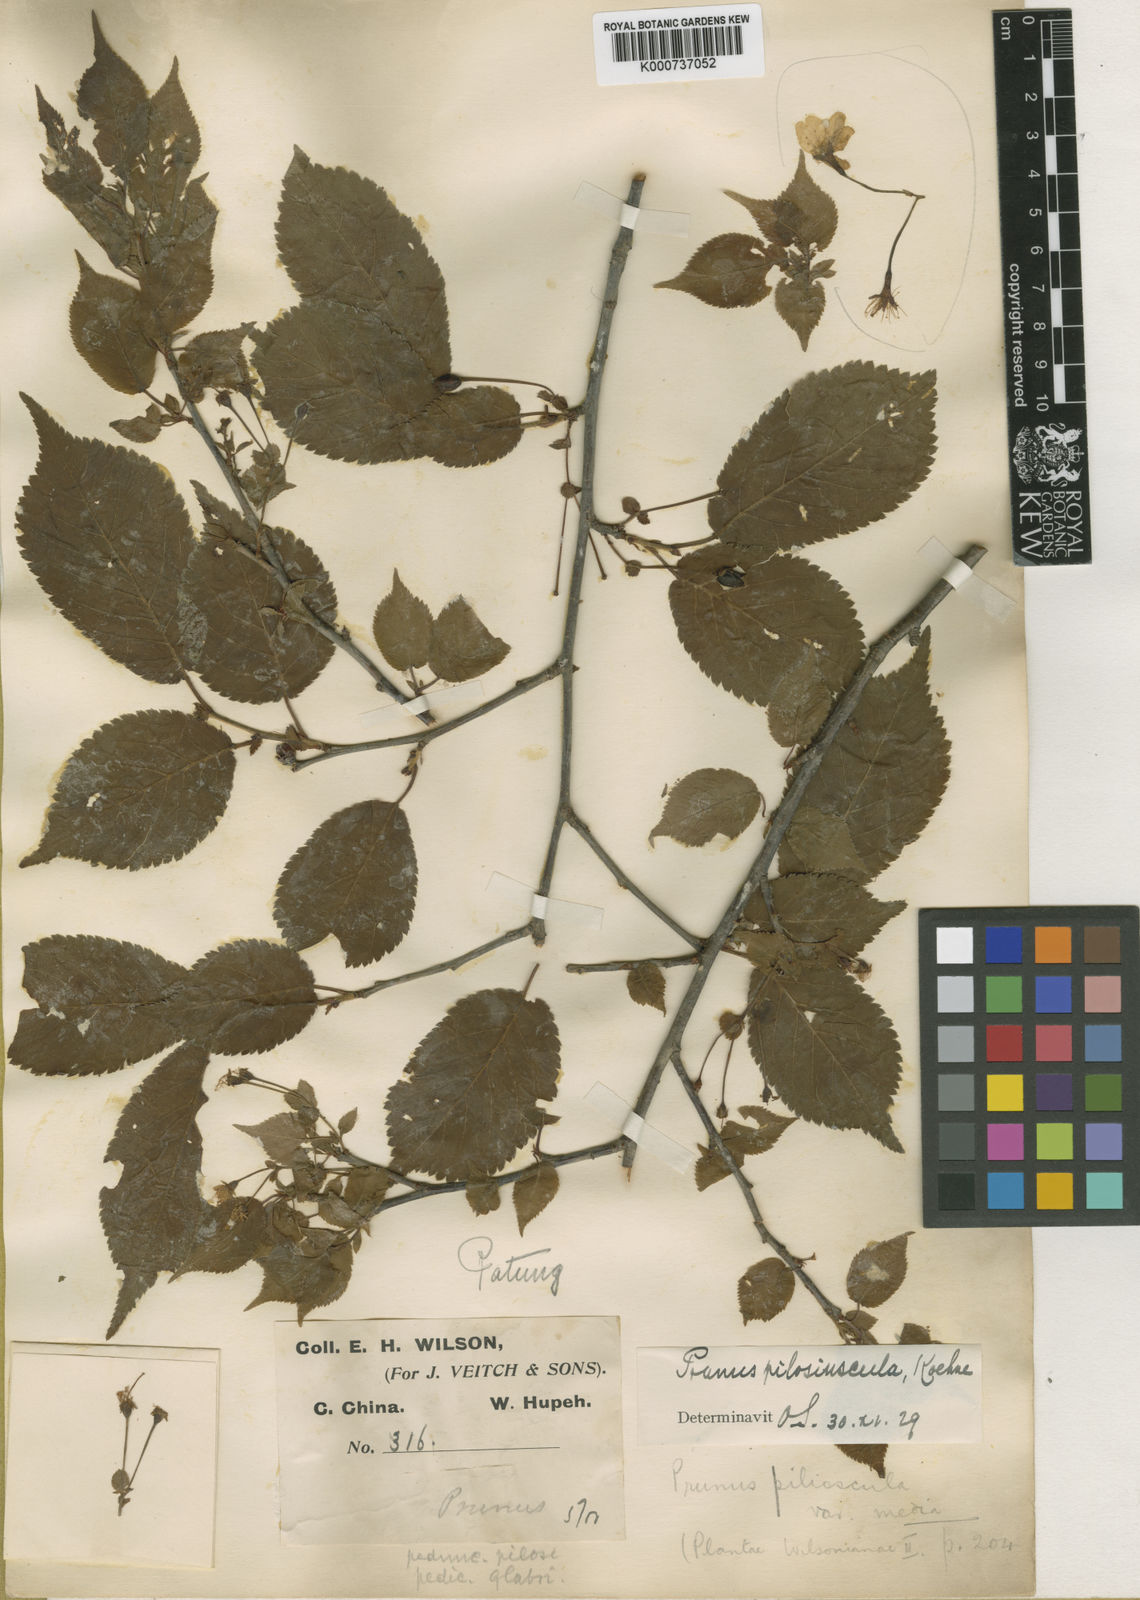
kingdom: Plantae
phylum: Tracheophyta
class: Magnoliopsida
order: Rosales
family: Rosaceae
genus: Prunus
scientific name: Prunus
